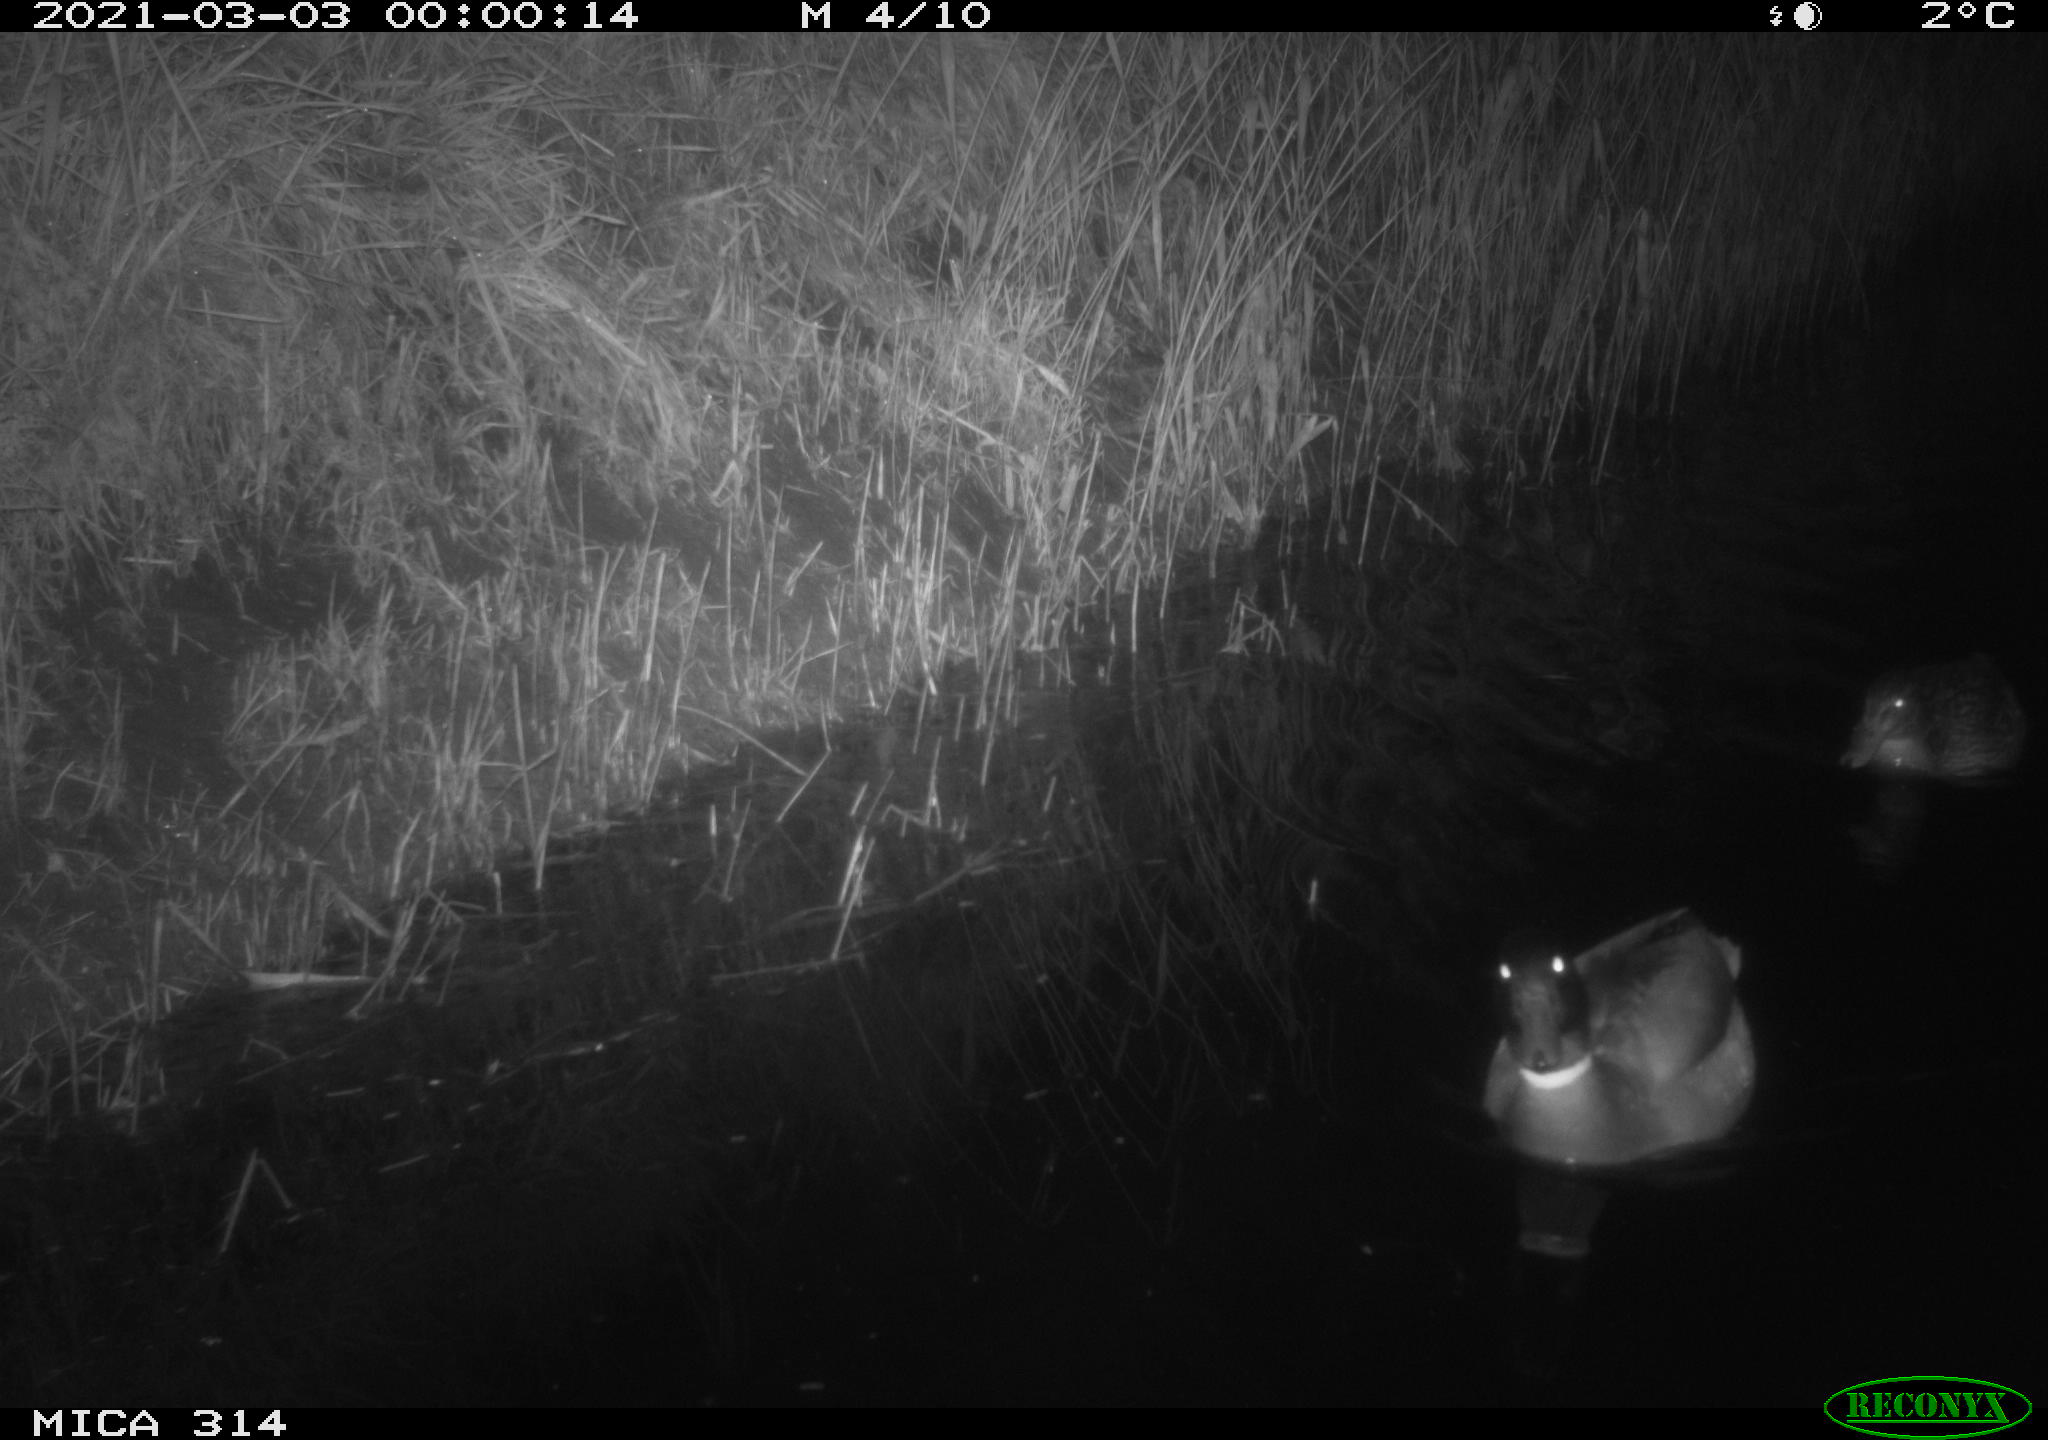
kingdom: Animalia
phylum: Chordata
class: Aves
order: Anseriformes
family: Anatidae
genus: Anas
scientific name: Anas platyrhynchos
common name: Mallard
